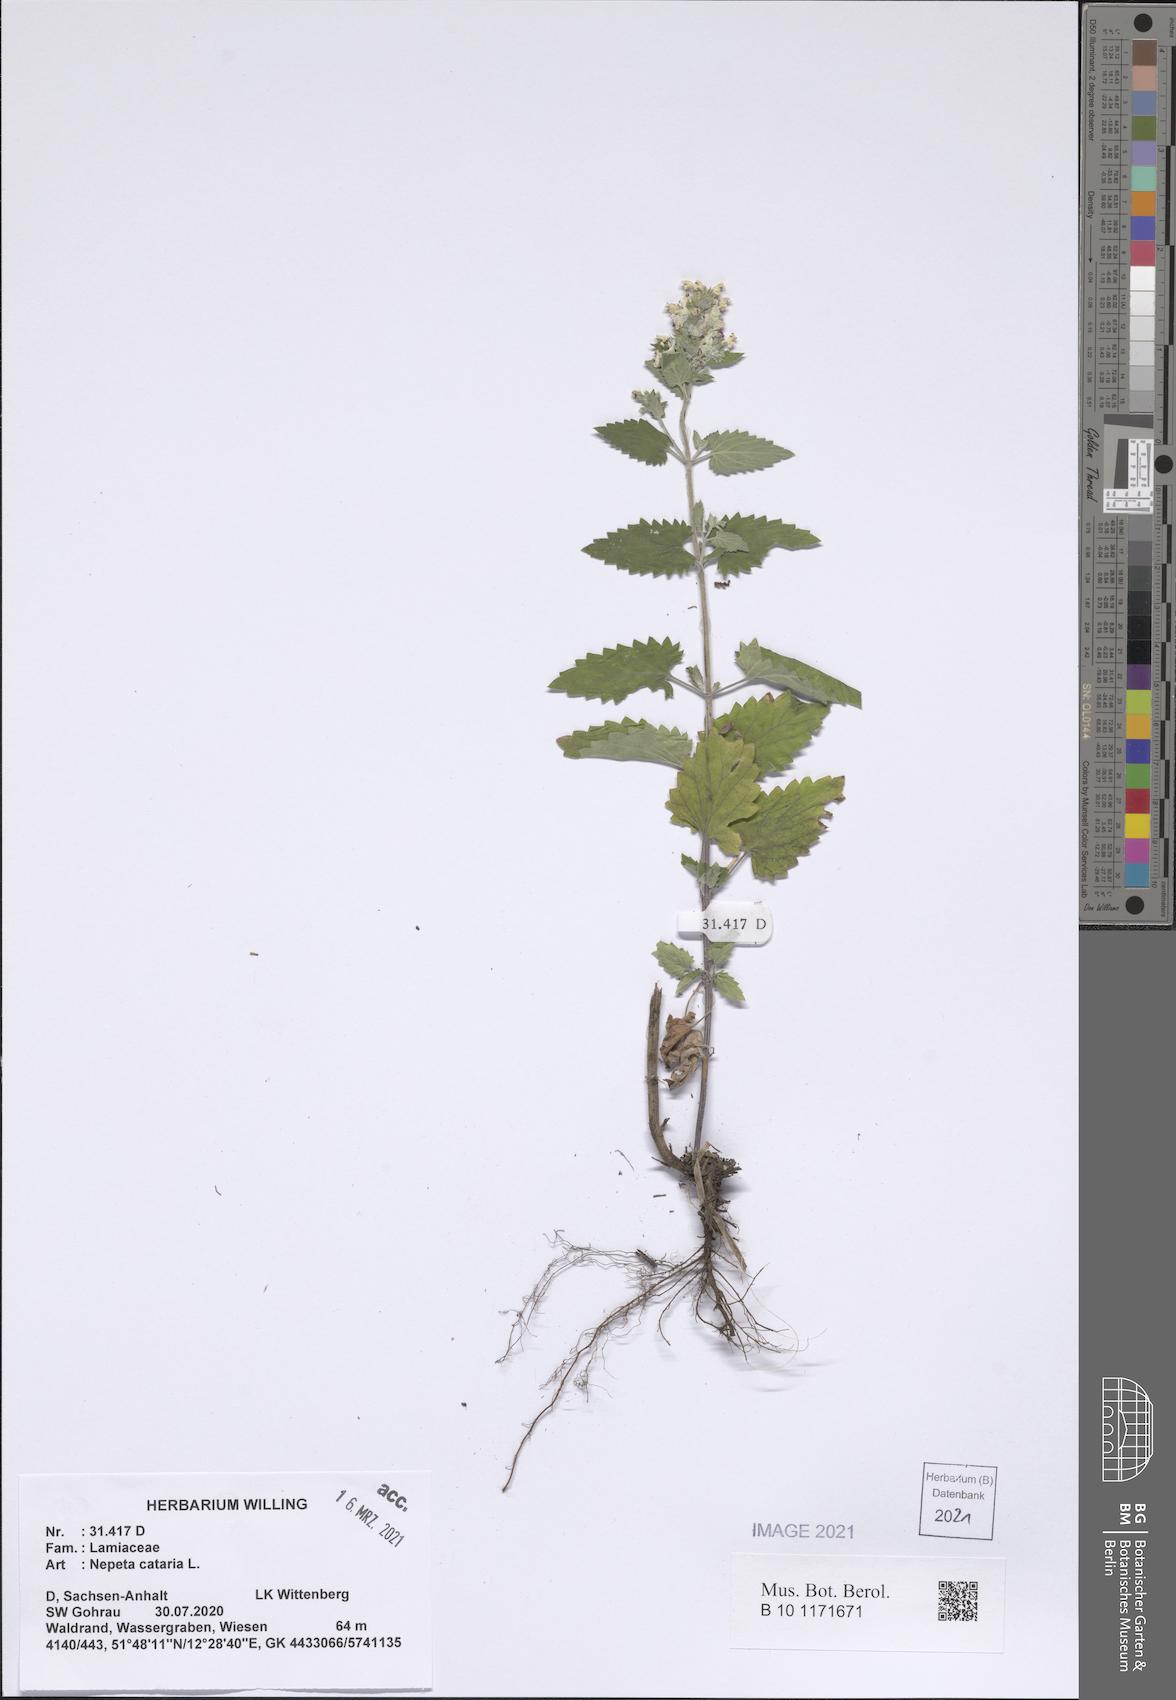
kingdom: Plantae
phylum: Tracheophyta
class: Magnoliopsida
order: Lamiales
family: Lamiaceae
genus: Nepeta
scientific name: Nepeta cataria
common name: Catnip
